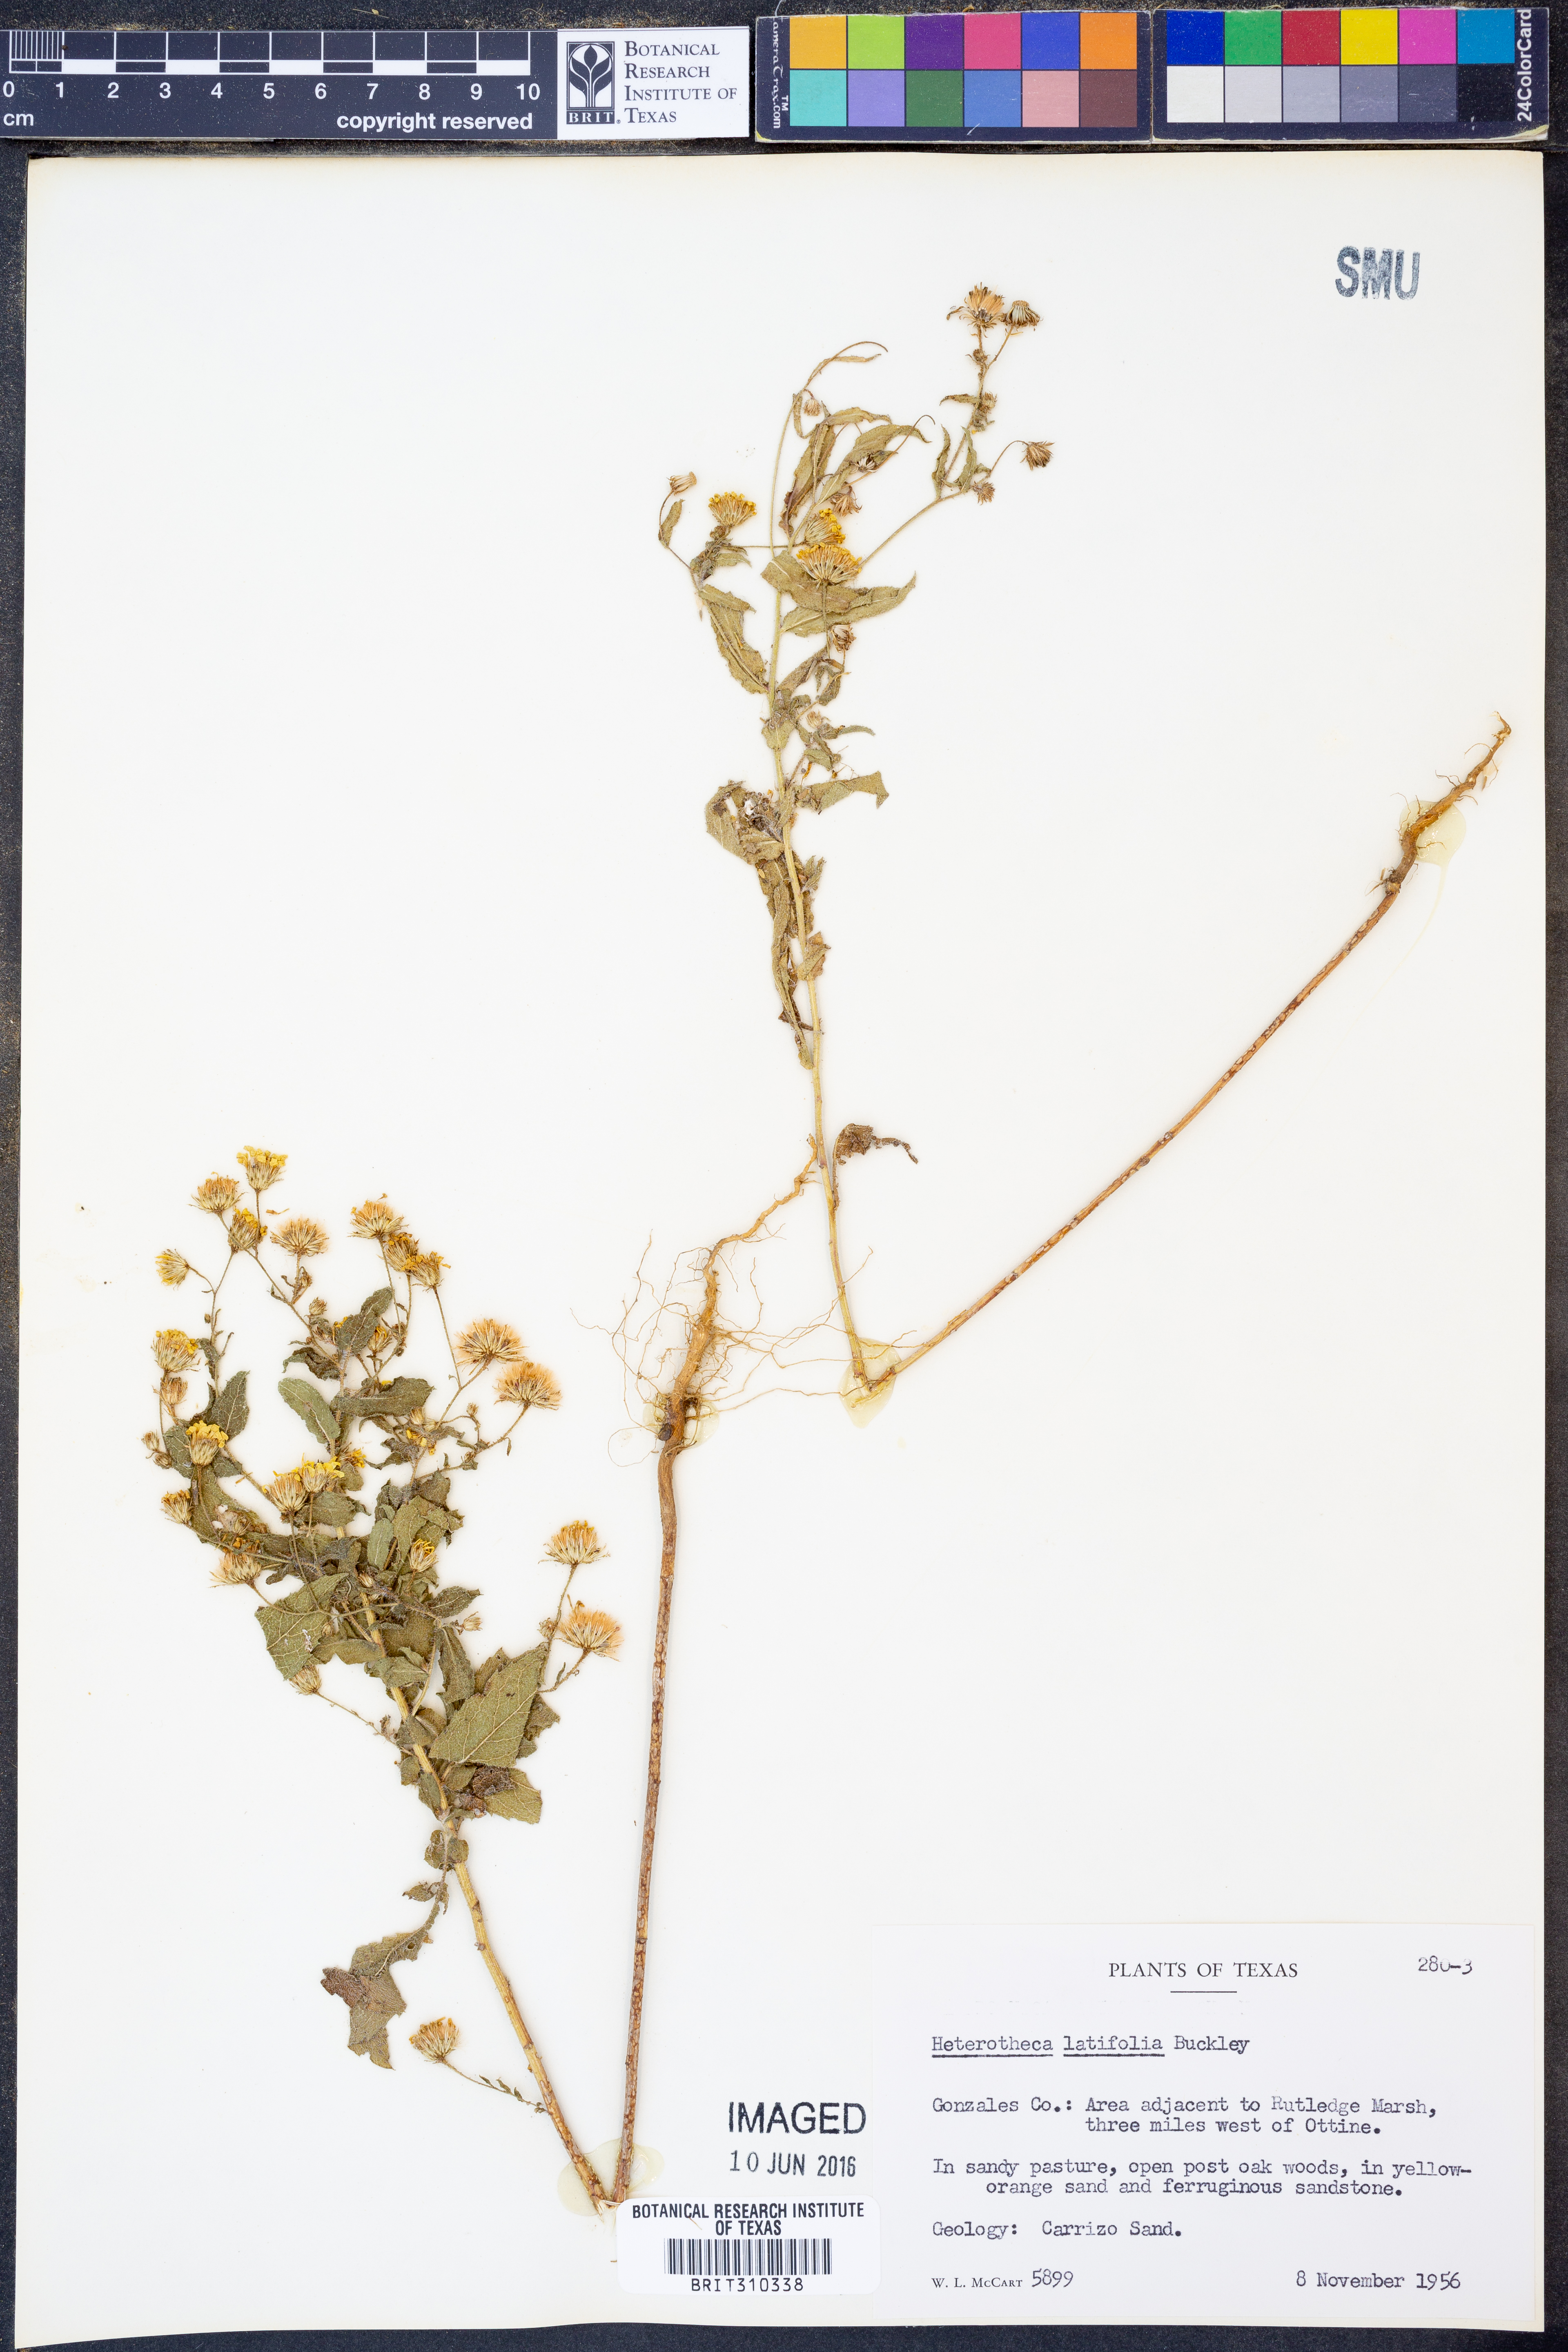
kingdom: Plantae
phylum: Tracheophyta
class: Magnoliopsida
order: Asterales
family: Asteraceae
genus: Heterotheca
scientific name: Heterotheca subaxillaris
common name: Camphorweed
